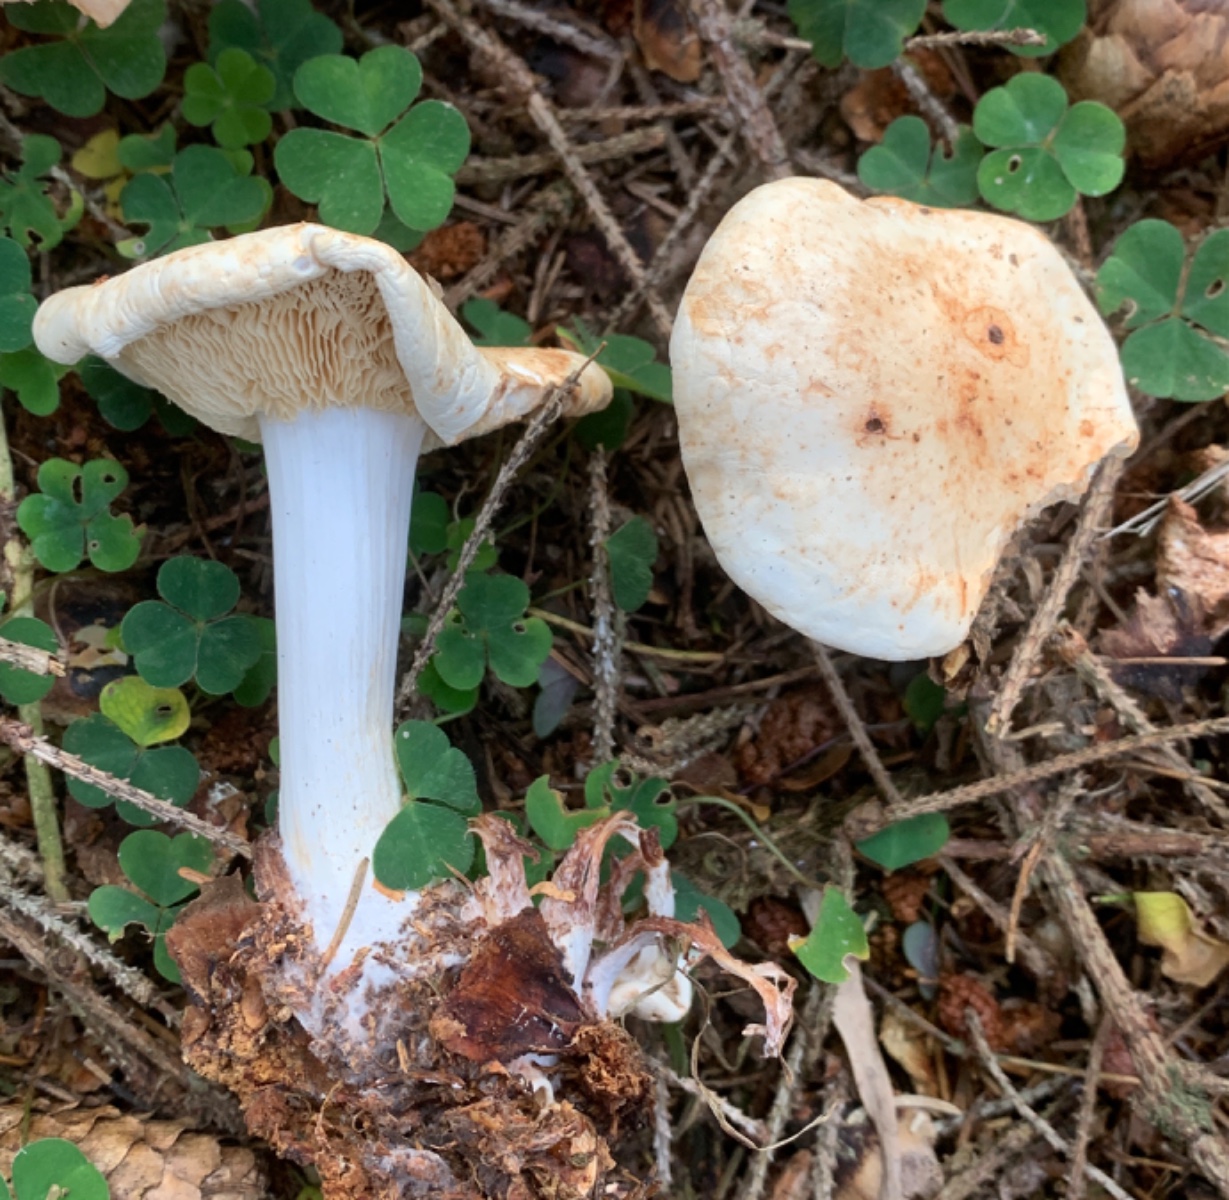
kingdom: Fungi
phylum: Basidiomycota
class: Agaricomycetes
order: Agaricales
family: Omphalotaceae
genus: Rhodocollybia
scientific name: Rhodocollybia maculata
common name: plettet fladhat
